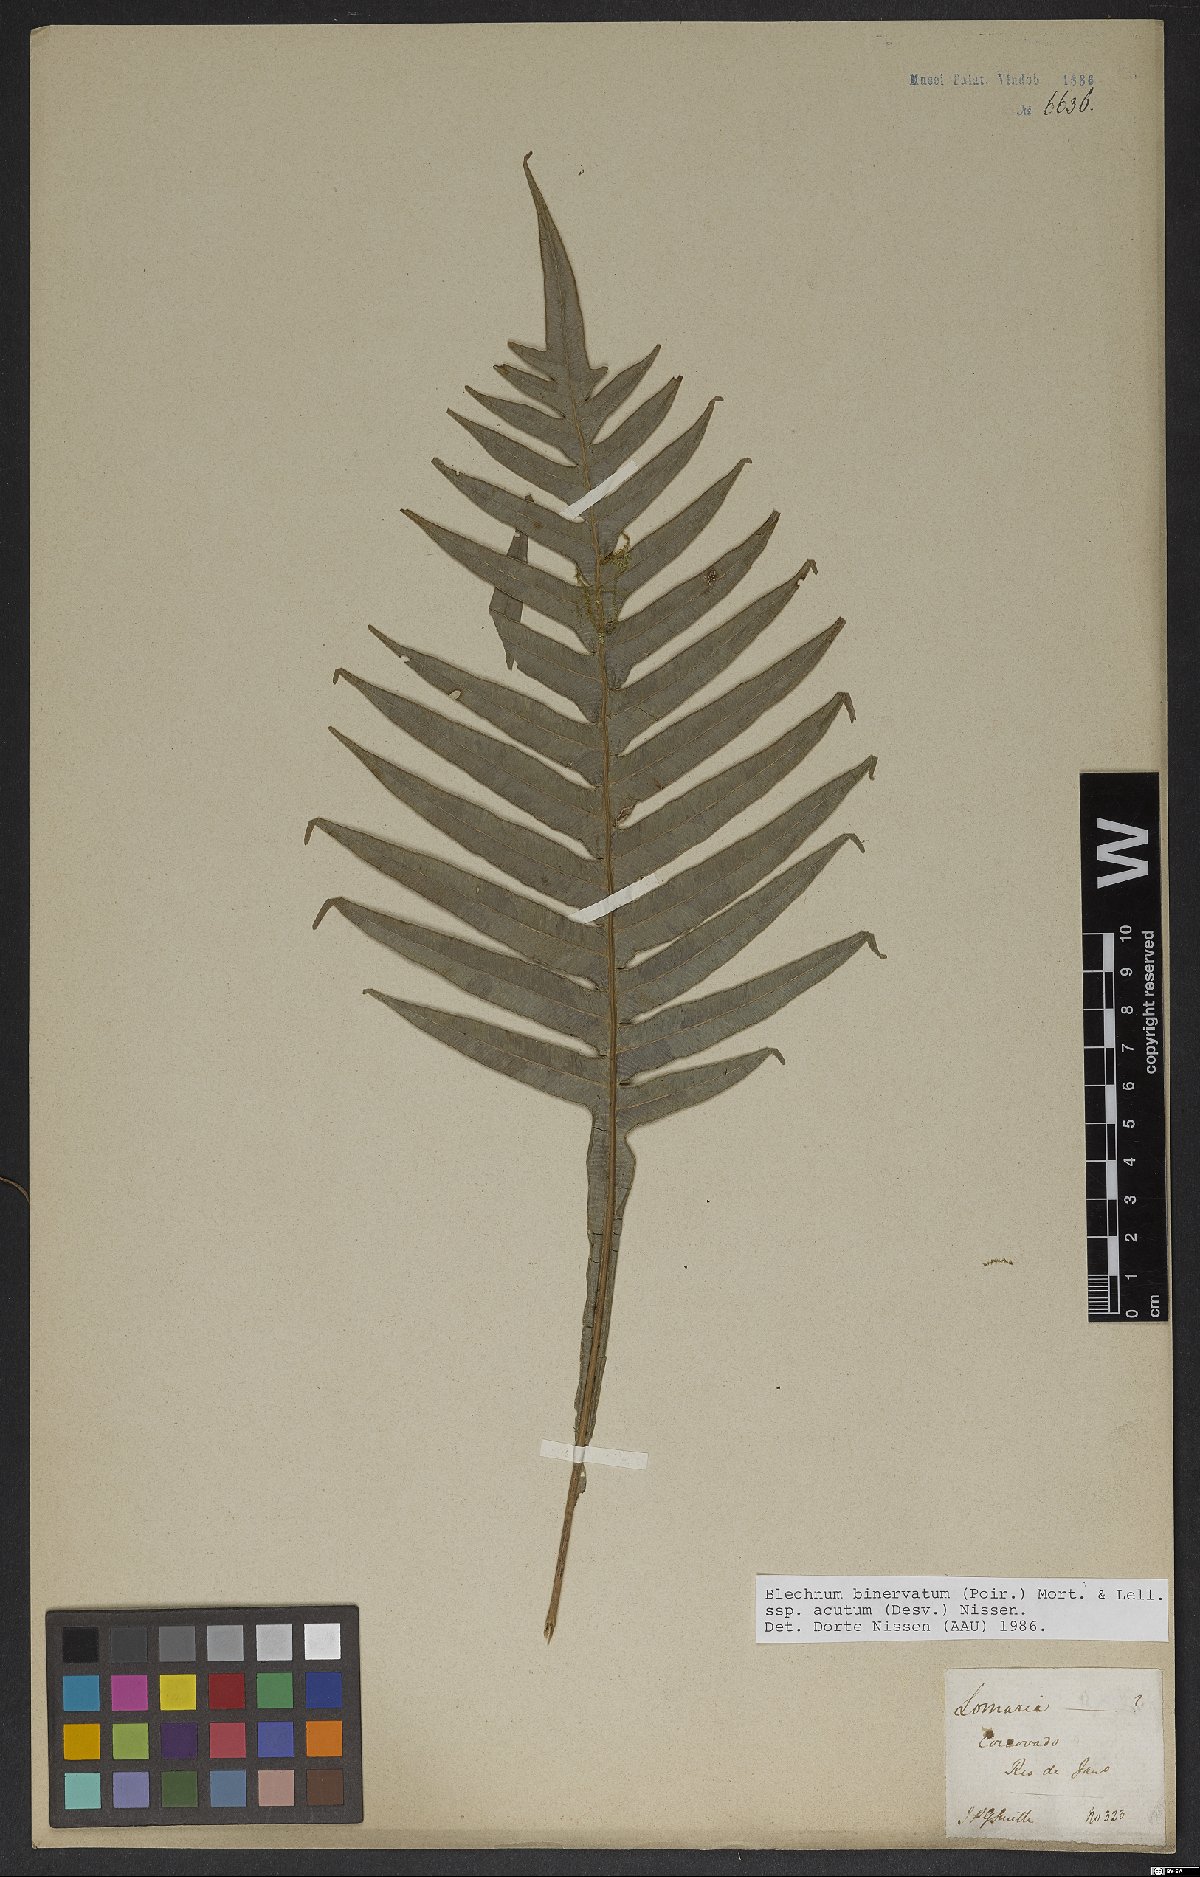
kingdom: Plantae
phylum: Tracheophyta
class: Polypodiopsida
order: Polypodiales
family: Blechnaceae
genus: Lomaridium
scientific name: Lomaridium binervatum
